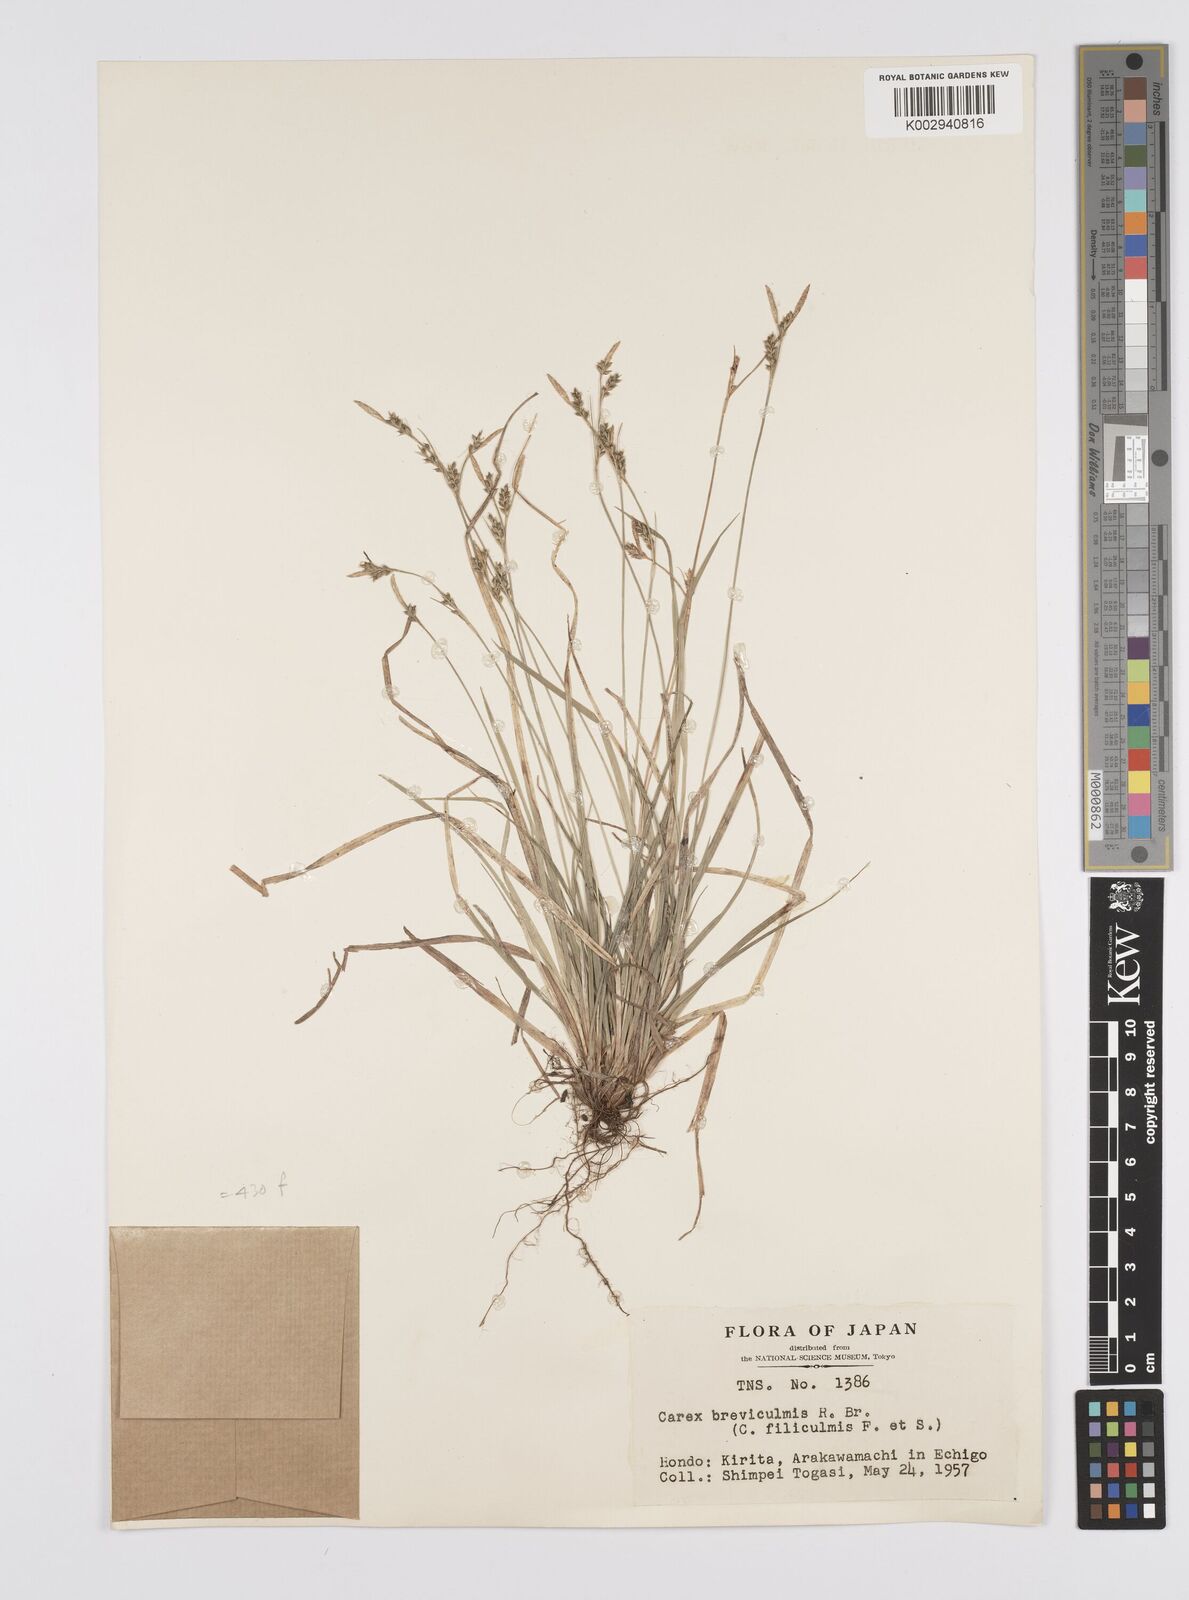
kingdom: Plantae
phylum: Tracheophyta
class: Liliopsida
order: Poales
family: Cyperaceae
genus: Carex
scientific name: Carex breviculmis
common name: Asian shortstem sedge
